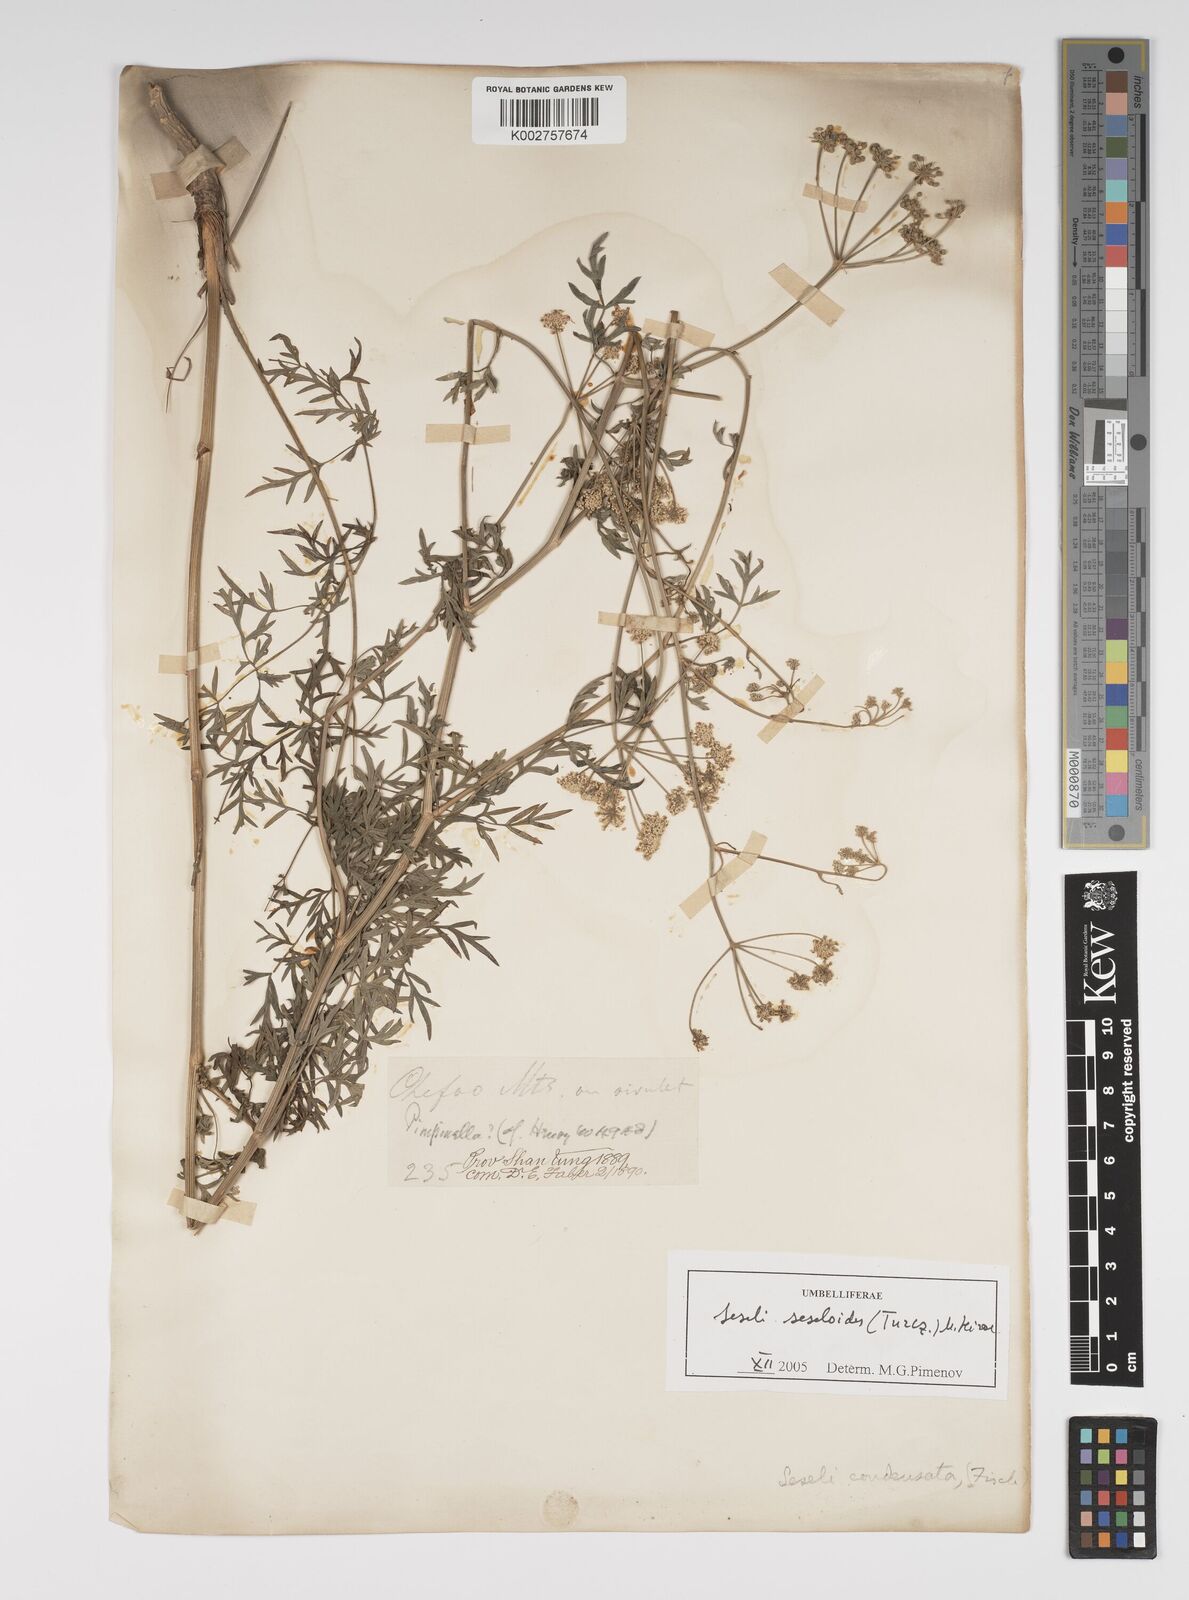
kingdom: Plantae
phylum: Tracheophyta
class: Magnoliopsida
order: Apiales
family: Apiaceae
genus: Seseli
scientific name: Seseli condensatum
